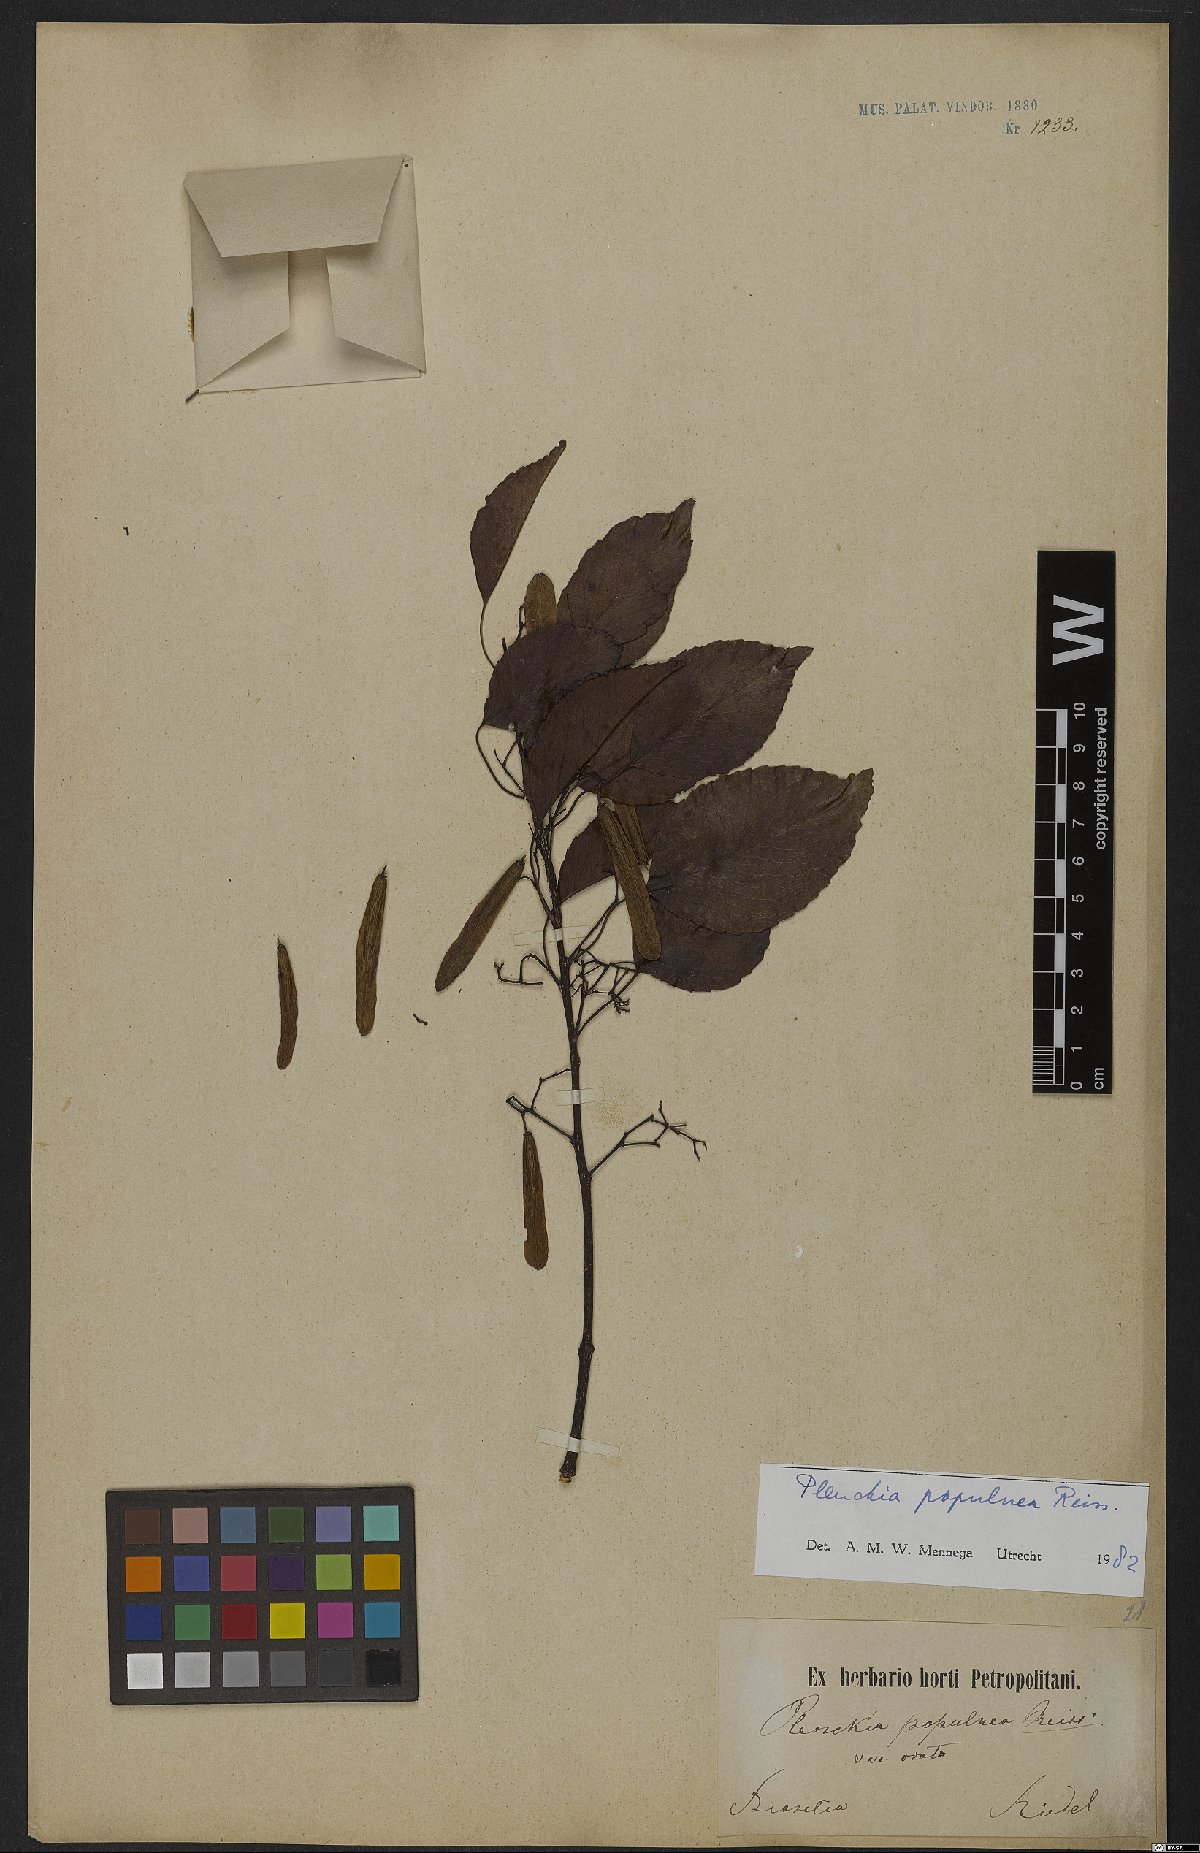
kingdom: Plantae
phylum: Tracheophyta
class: Magnoliopsida
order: Celastrales
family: Celastraceae
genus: Plenckia
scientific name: Plenckia populnea
